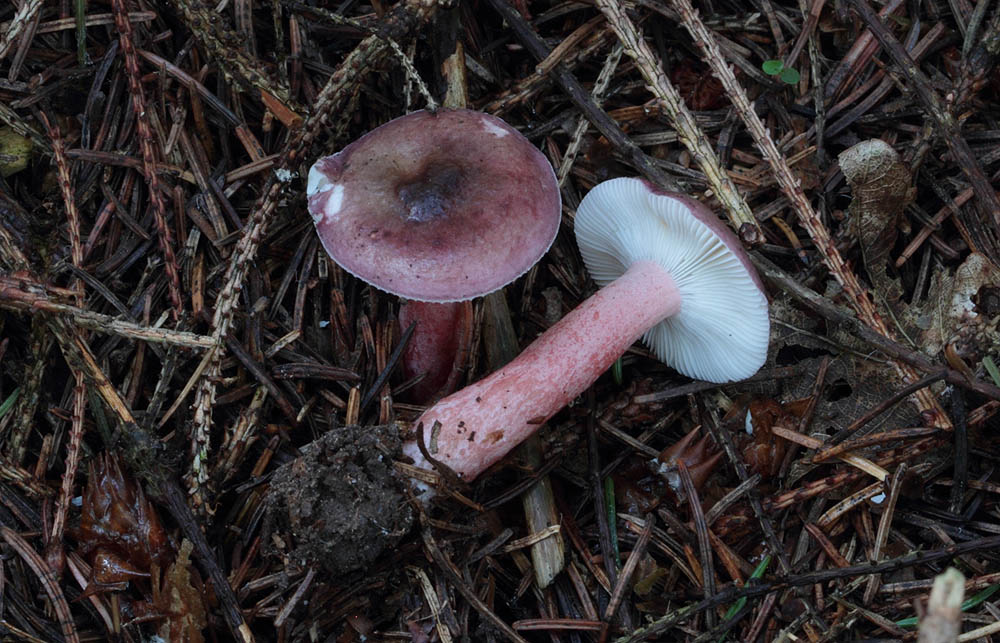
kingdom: Fungi
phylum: Basidiomycota
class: Agaricomycetes
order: Russulales
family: Russulaceae
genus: Russula
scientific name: Russula queletii
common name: Quélets skørhat
